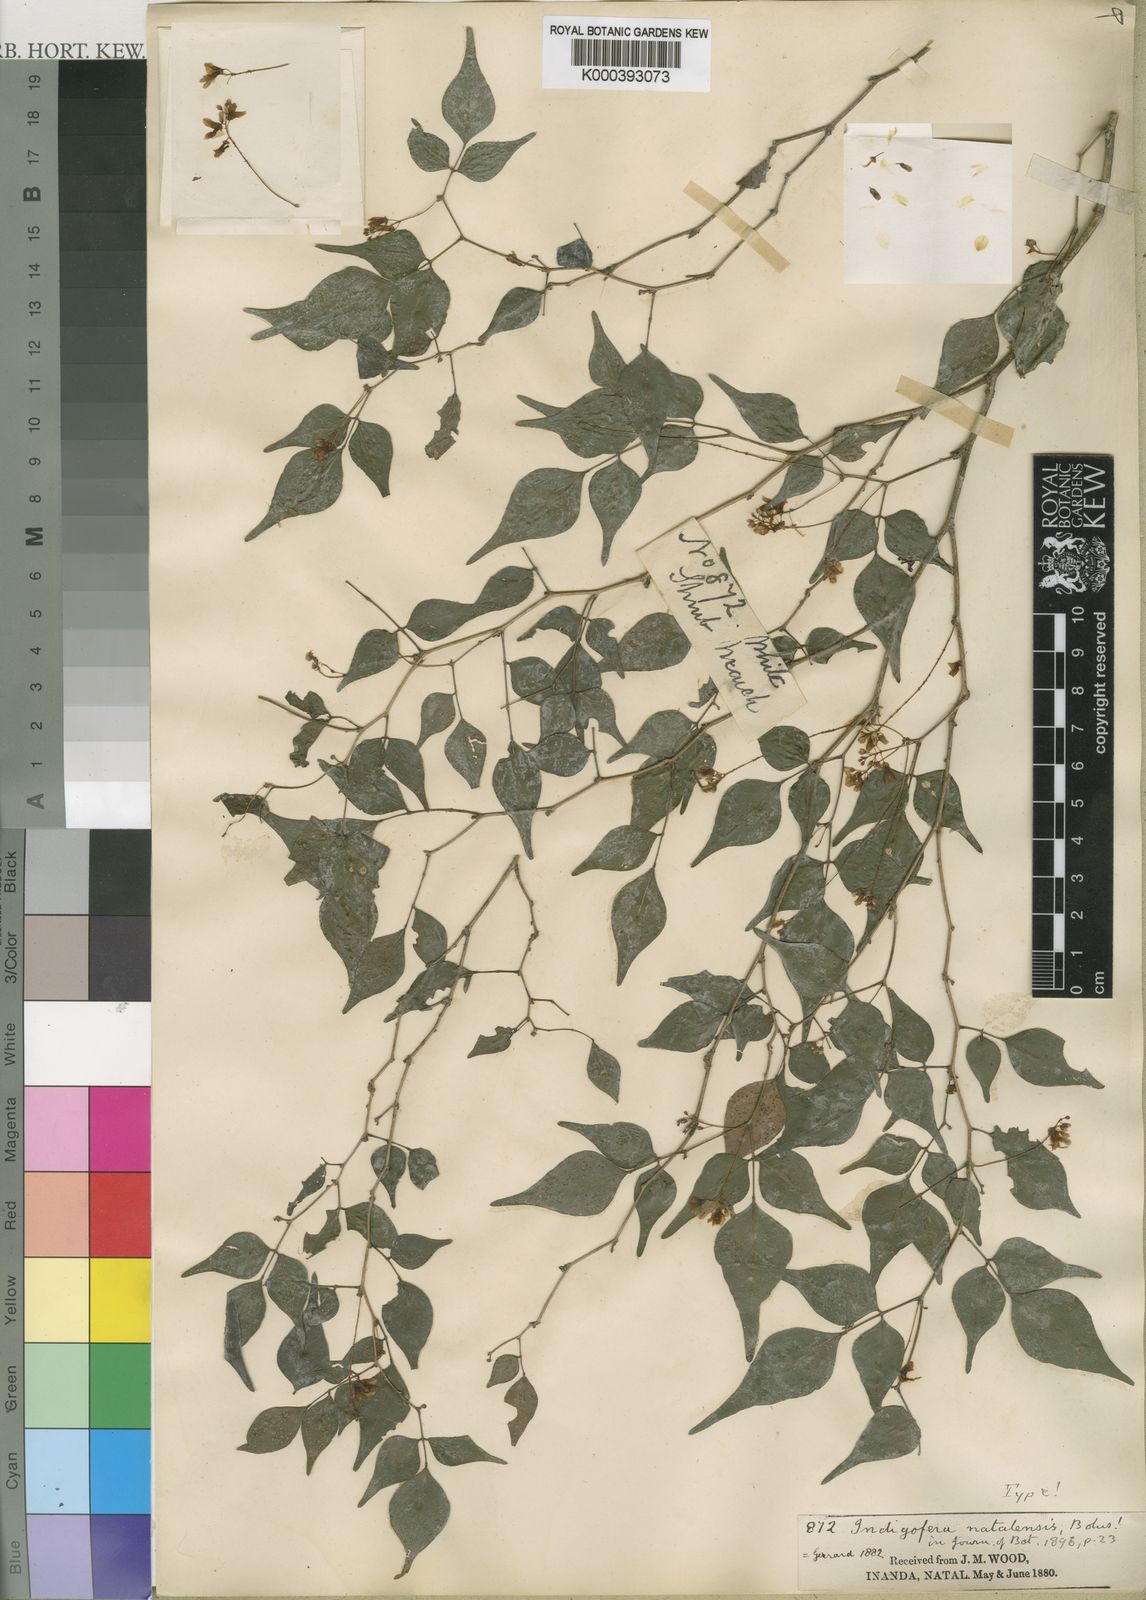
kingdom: Plantae
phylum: Tracheophyta
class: Magnoliopsida
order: Fabales
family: Fabaceae
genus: Indigofera
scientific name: Indigofera natalensis
